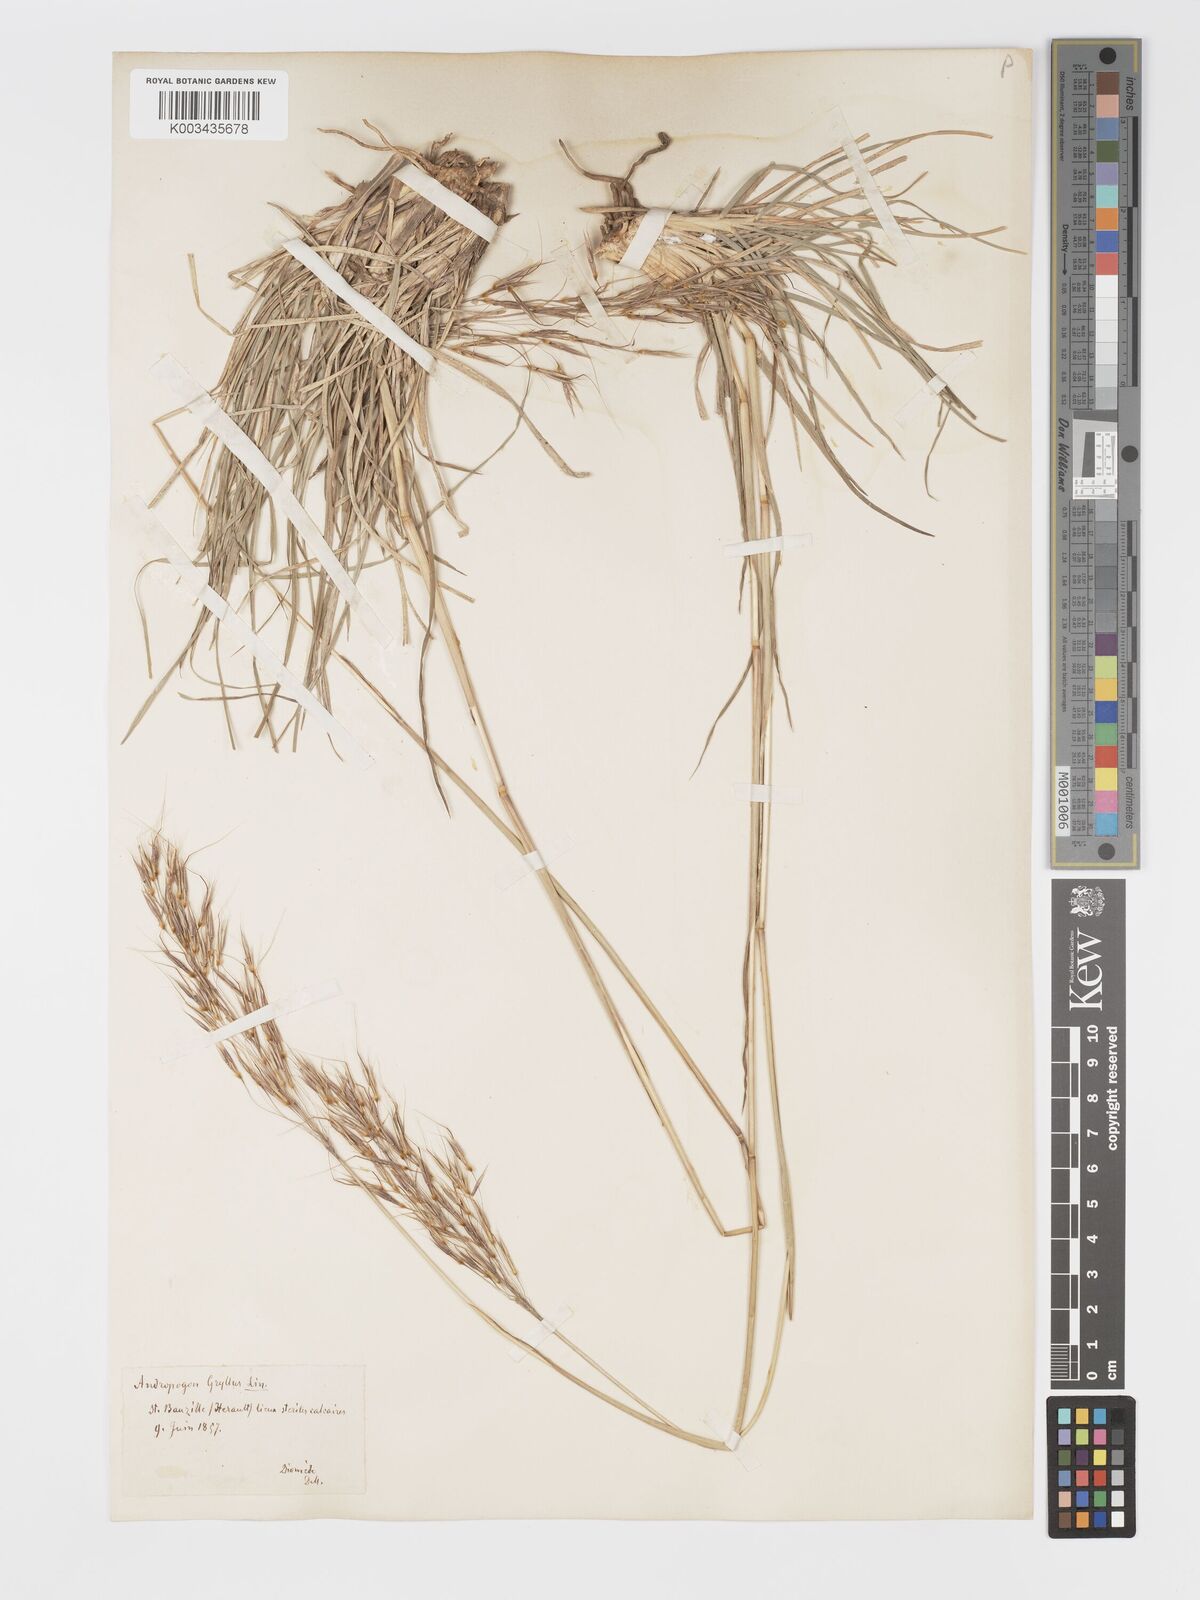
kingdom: Plantae
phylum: Tracheophyta
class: Liliopsida
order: Poales
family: Poaceae
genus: Chrysopogon
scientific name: Chrysopogon gryllus
